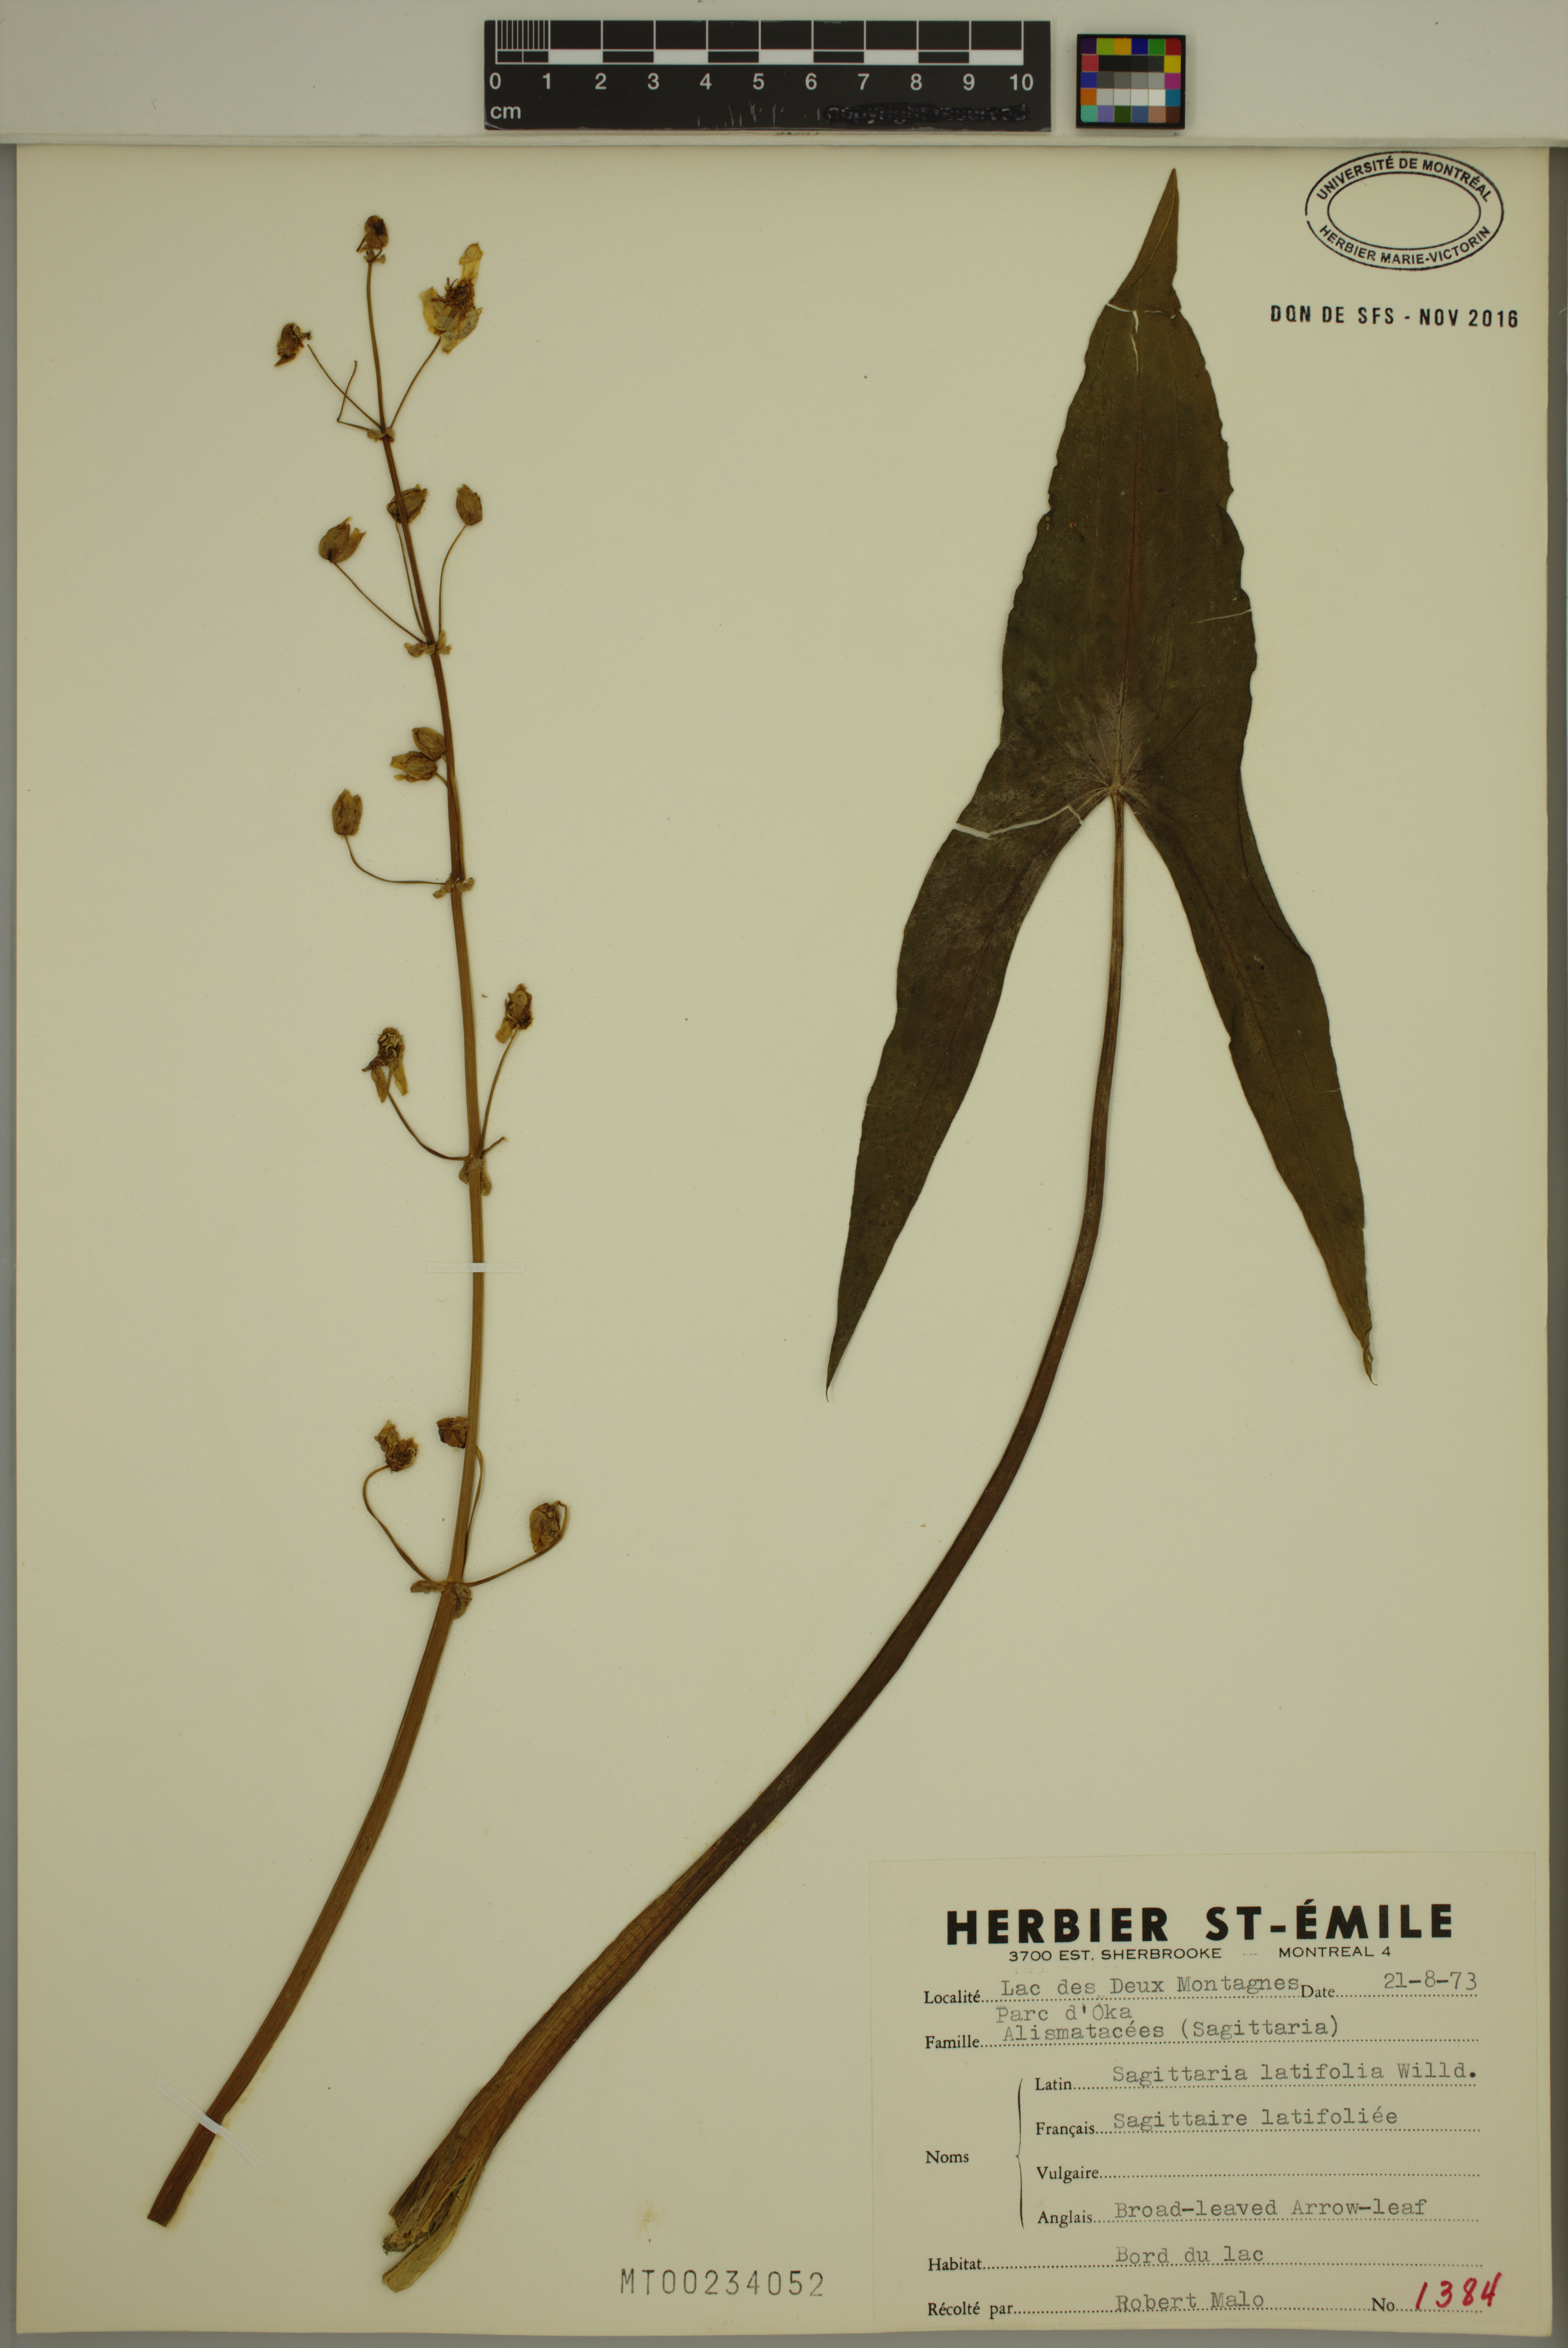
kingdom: Plantae
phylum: Tracheophyta
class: Liliopsida
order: Alismatales
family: Alismataceae
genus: Sagittaria
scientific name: Sagittaria latifolia
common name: Duck-potato
